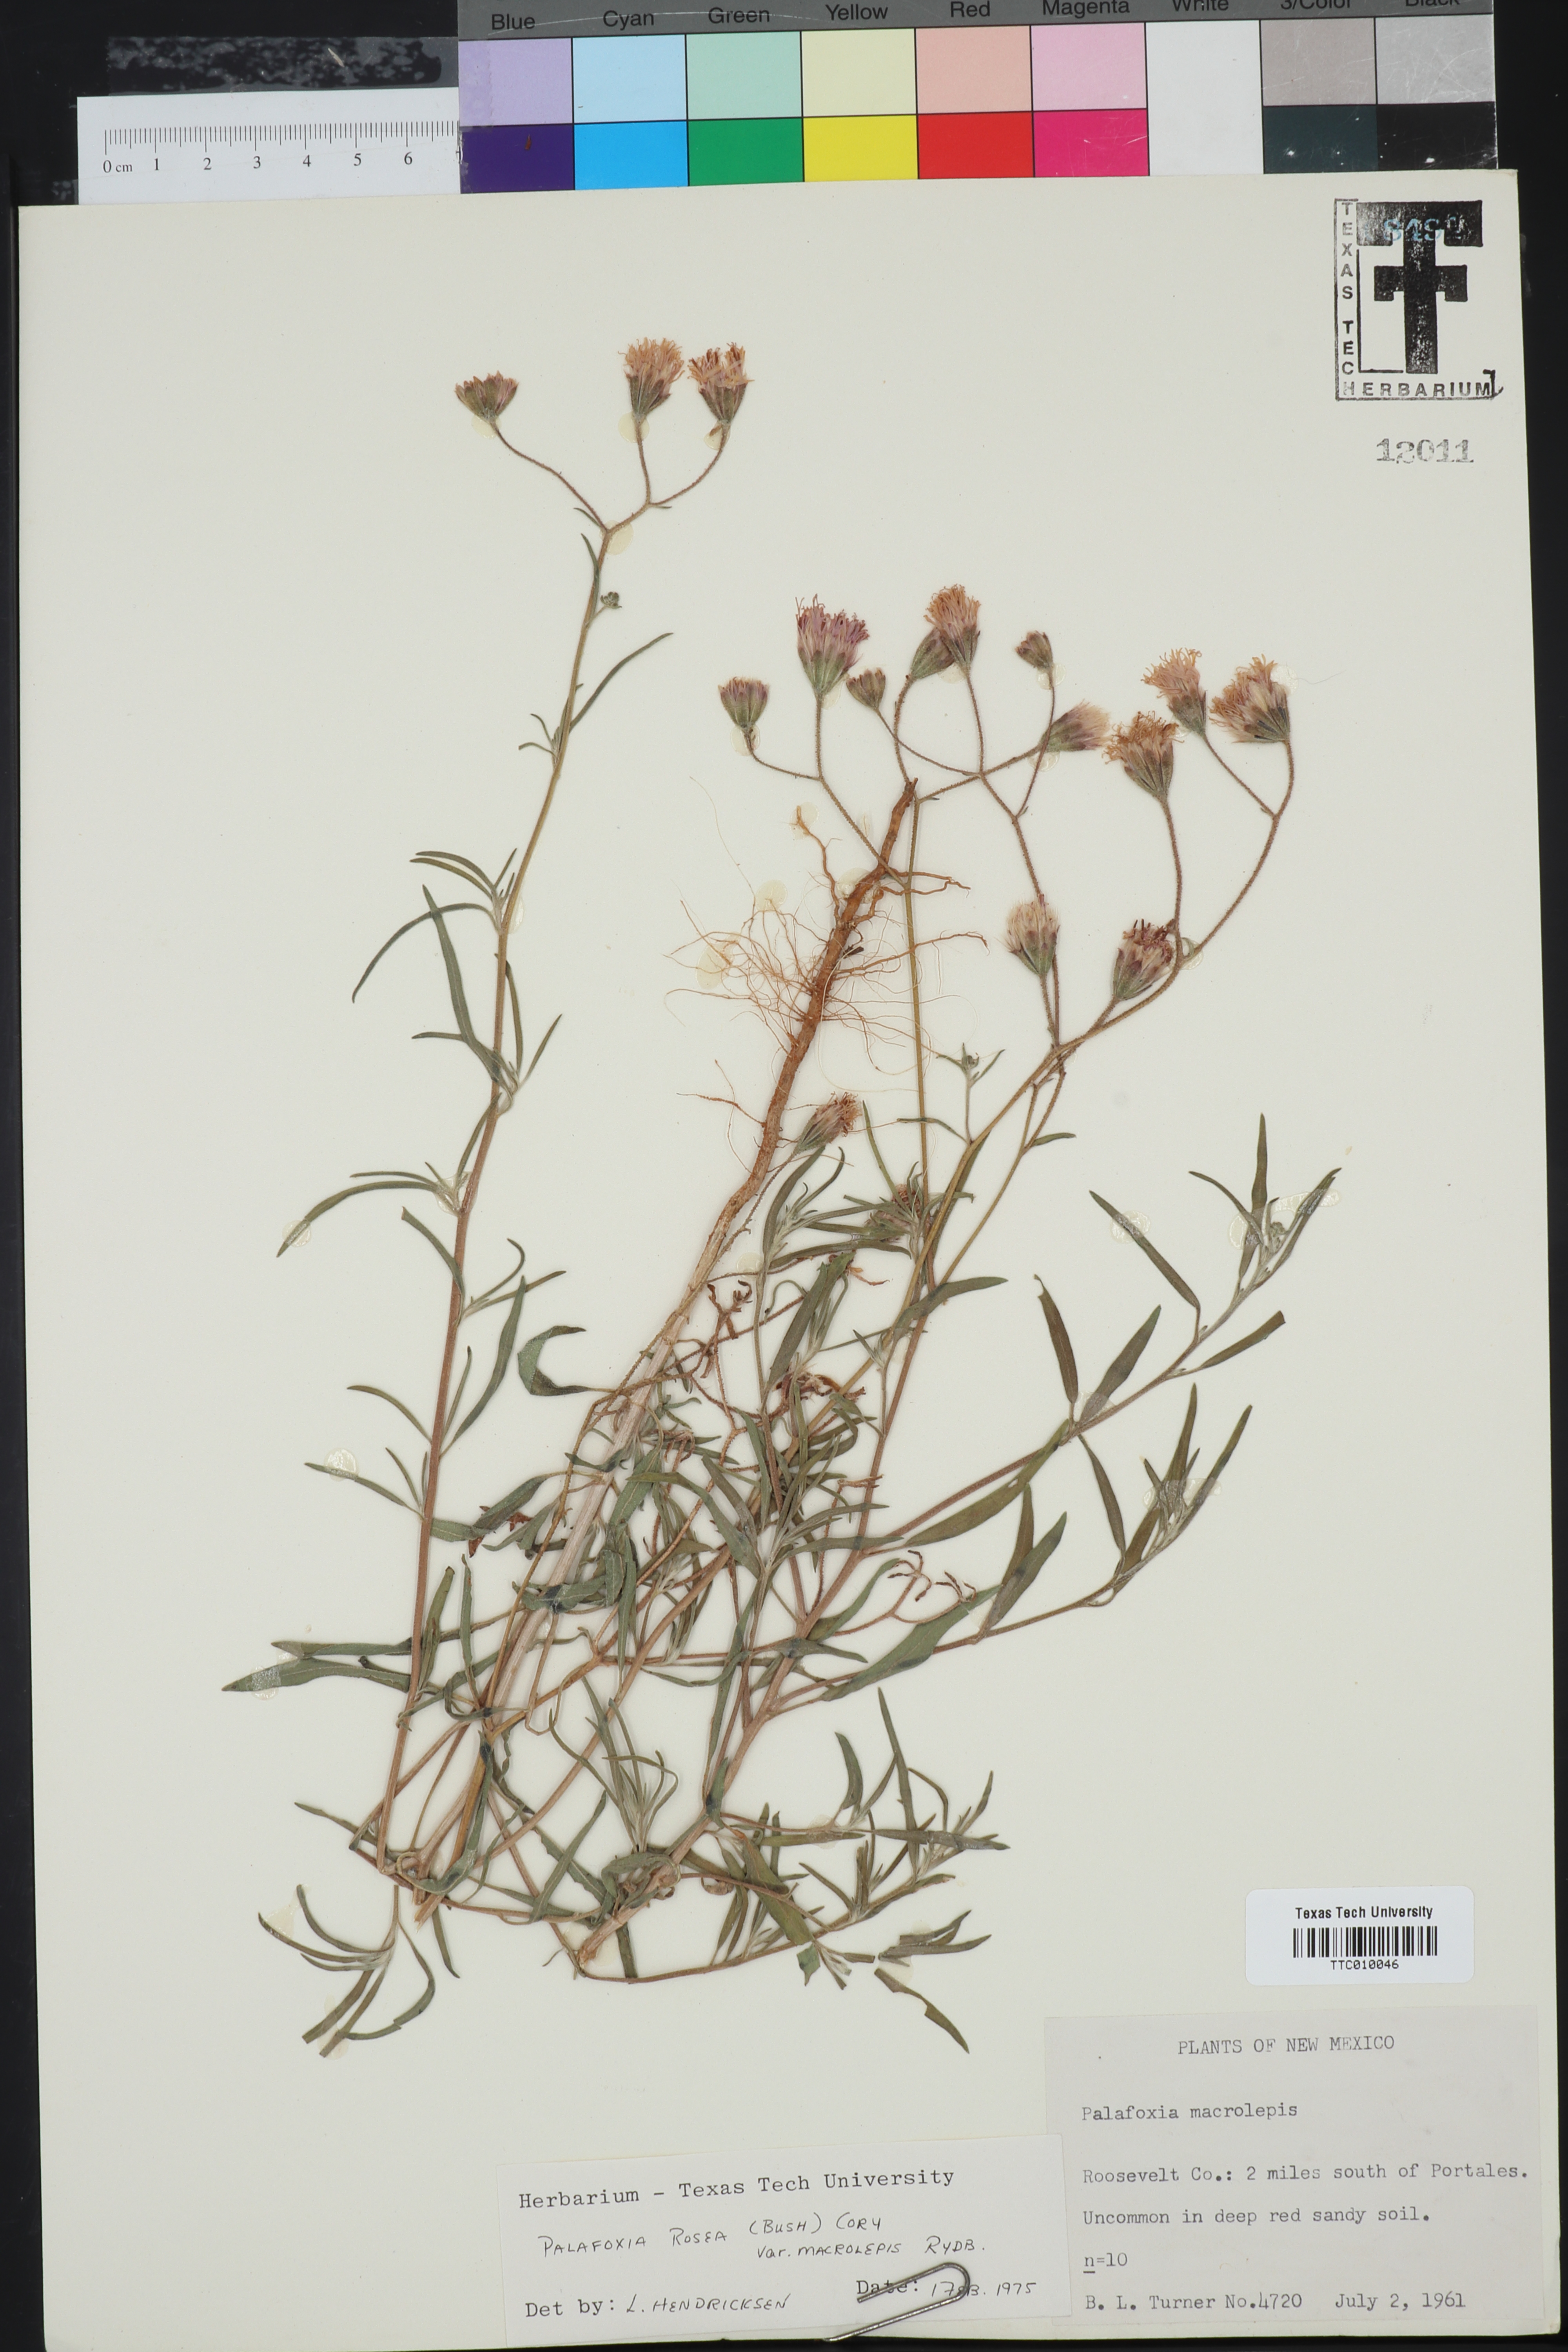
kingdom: Plantae
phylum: Tracheophyta
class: Magnoliopsida
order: Asterales
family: Asteraceae
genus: Palafoxia
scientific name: Palafoxia rosea
